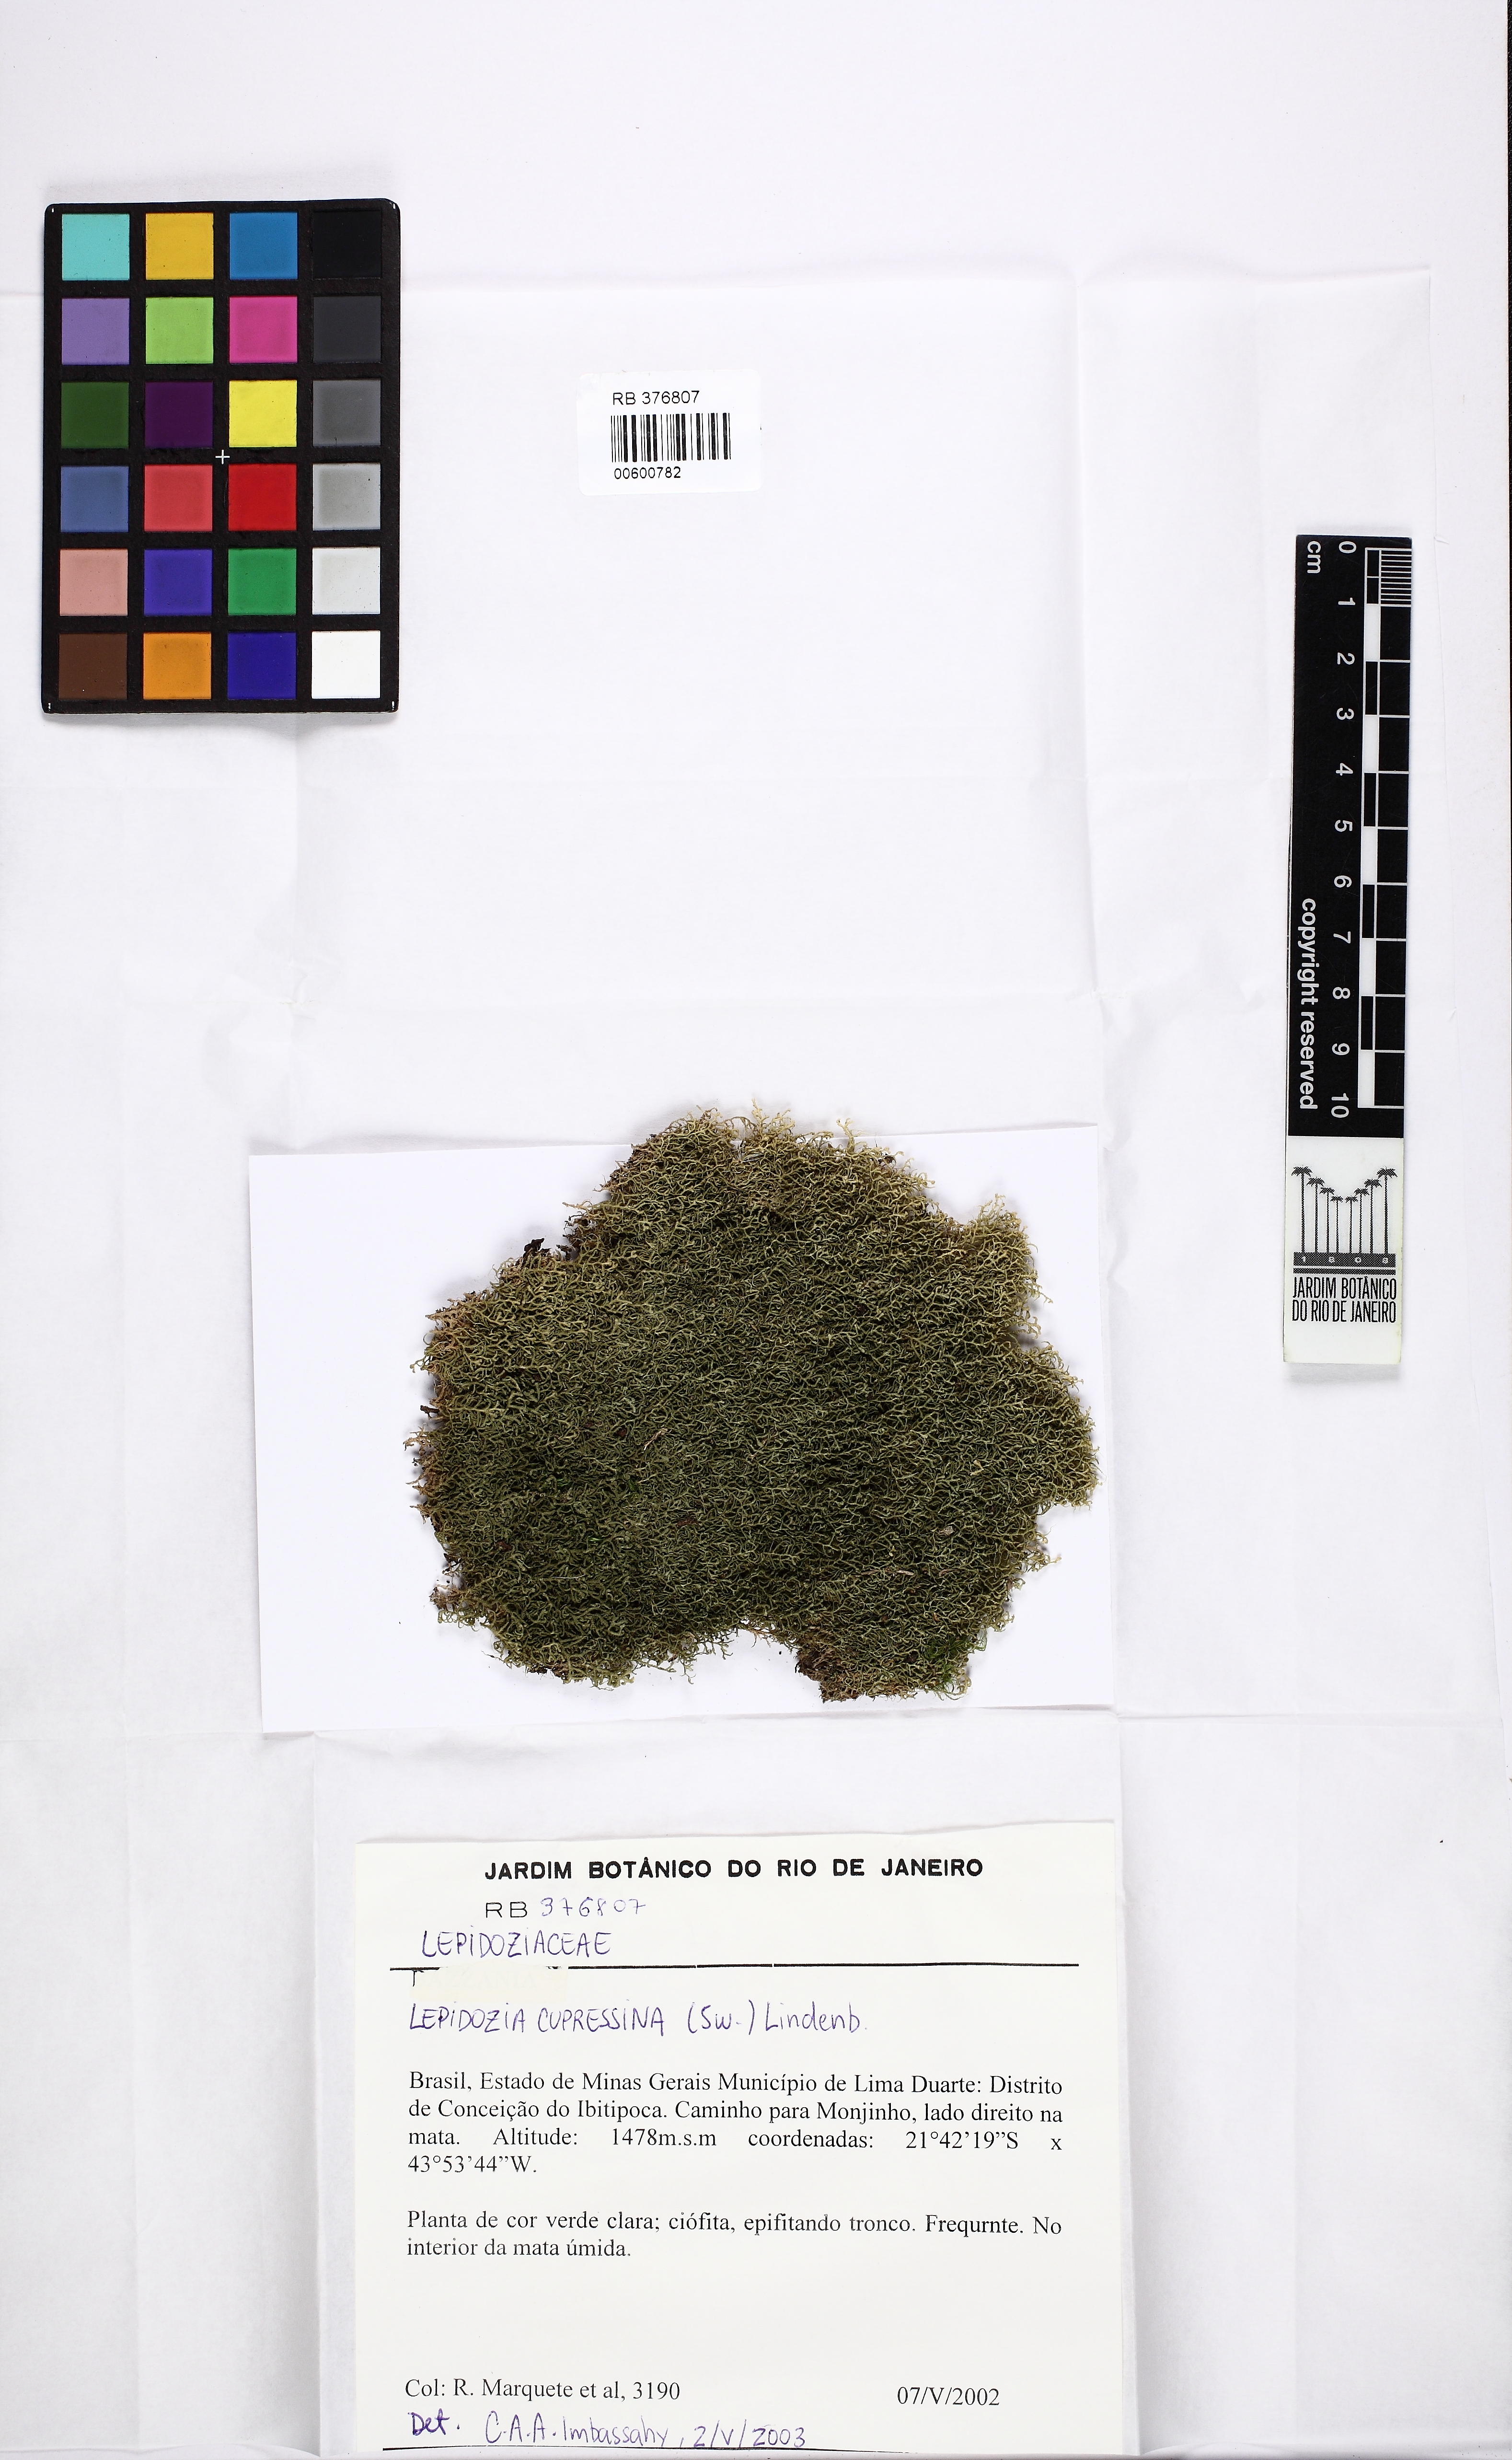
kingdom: Plantae
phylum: Marchantiophyta
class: Jungermanniopsida
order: Jungermanniales
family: Lepidoziaceae
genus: Lepidozia
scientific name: Lepidozia cupressina
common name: Rock fingerwort
